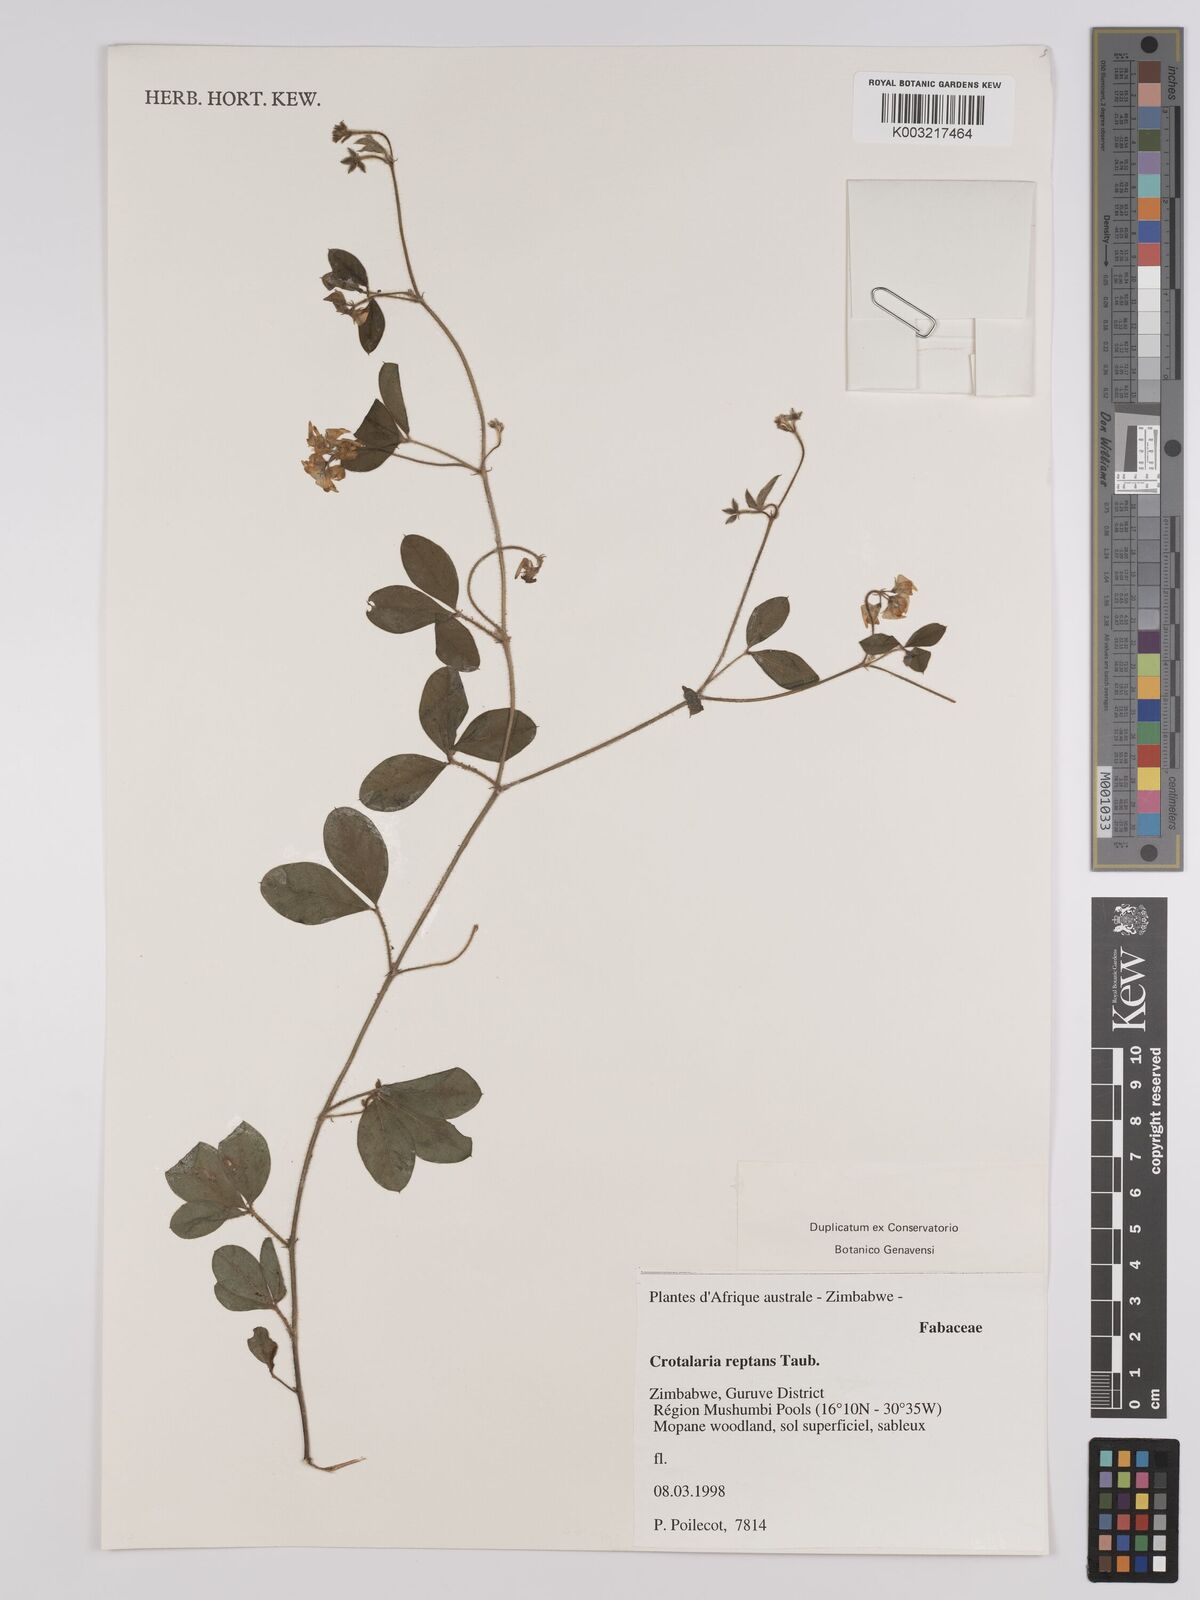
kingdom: Plantae
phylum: Tracheophyta
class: Magnoliopsida
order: Fabales
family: Fabaceae
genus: Crotalaria
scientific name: Crotalaria reptans
